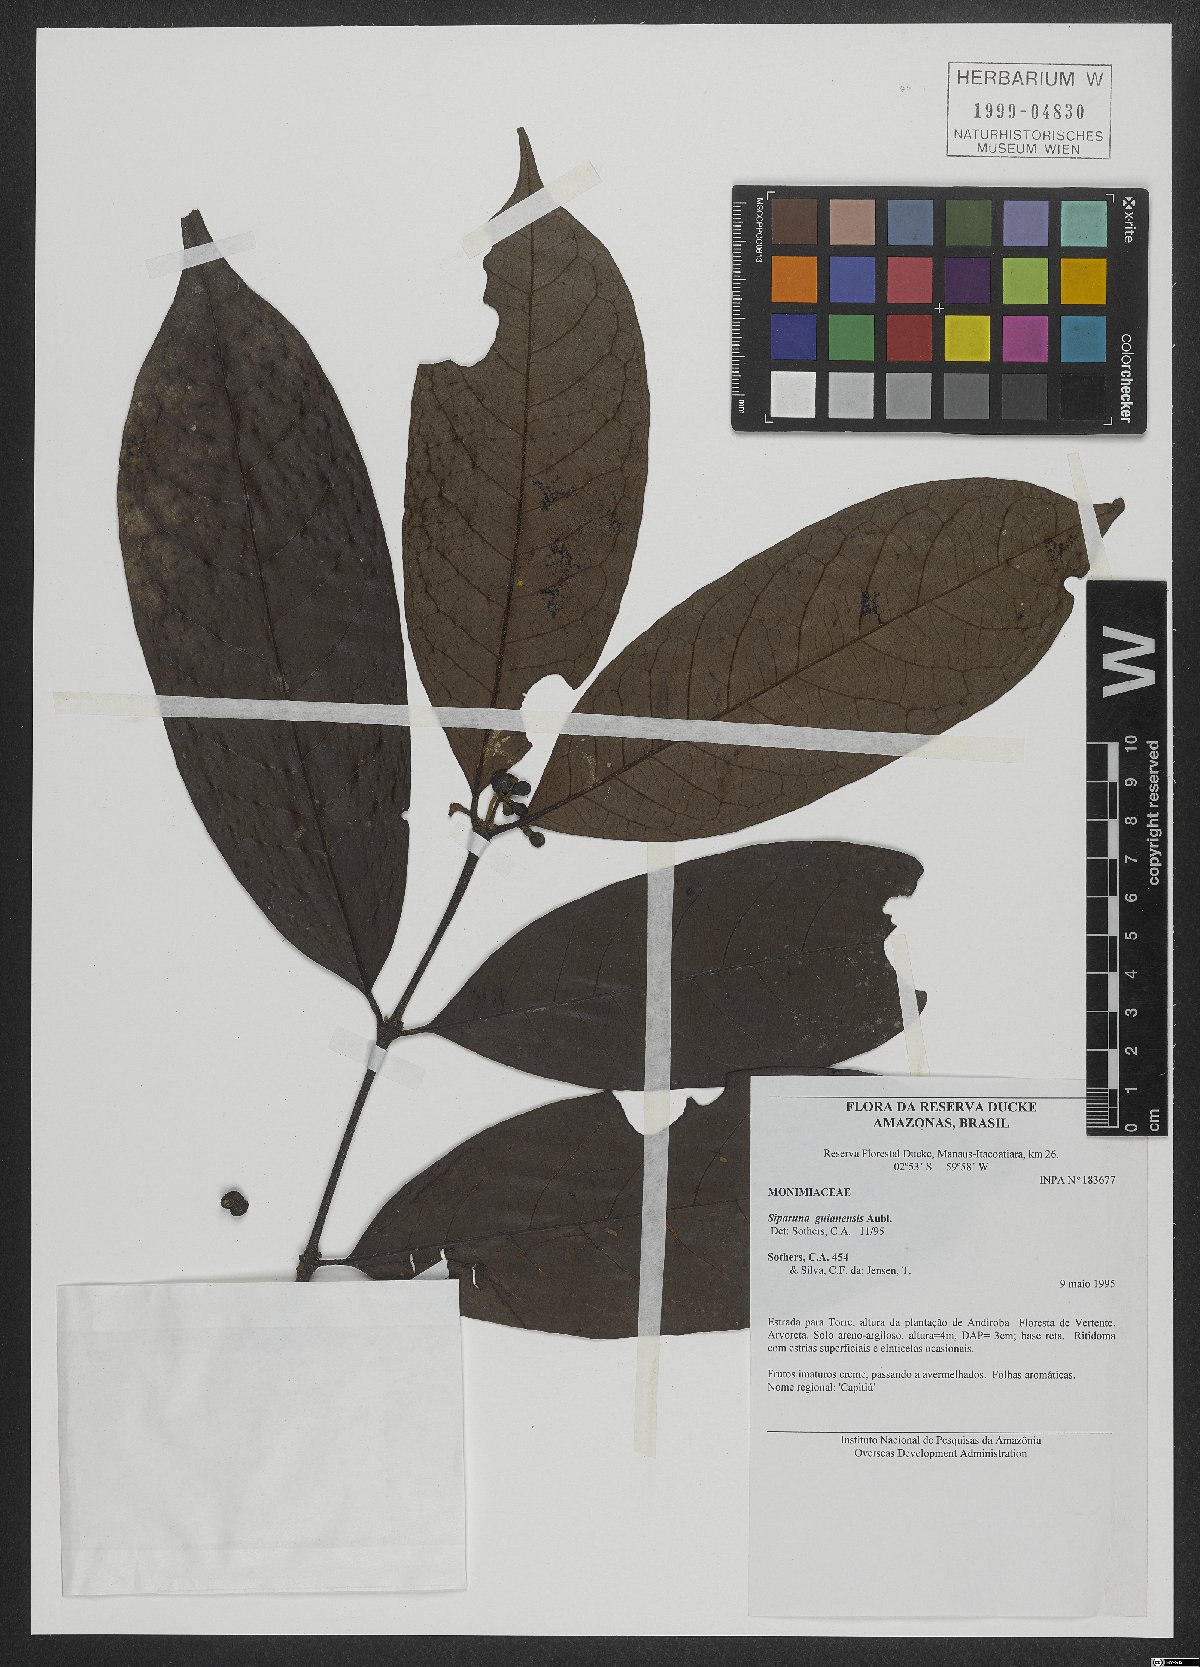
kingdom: Plantae
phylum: Tracheophyta
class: Magnoliopsida
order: Laurales
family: Siparunaceae
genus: Siparuna
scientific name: Siparuna guianensis
